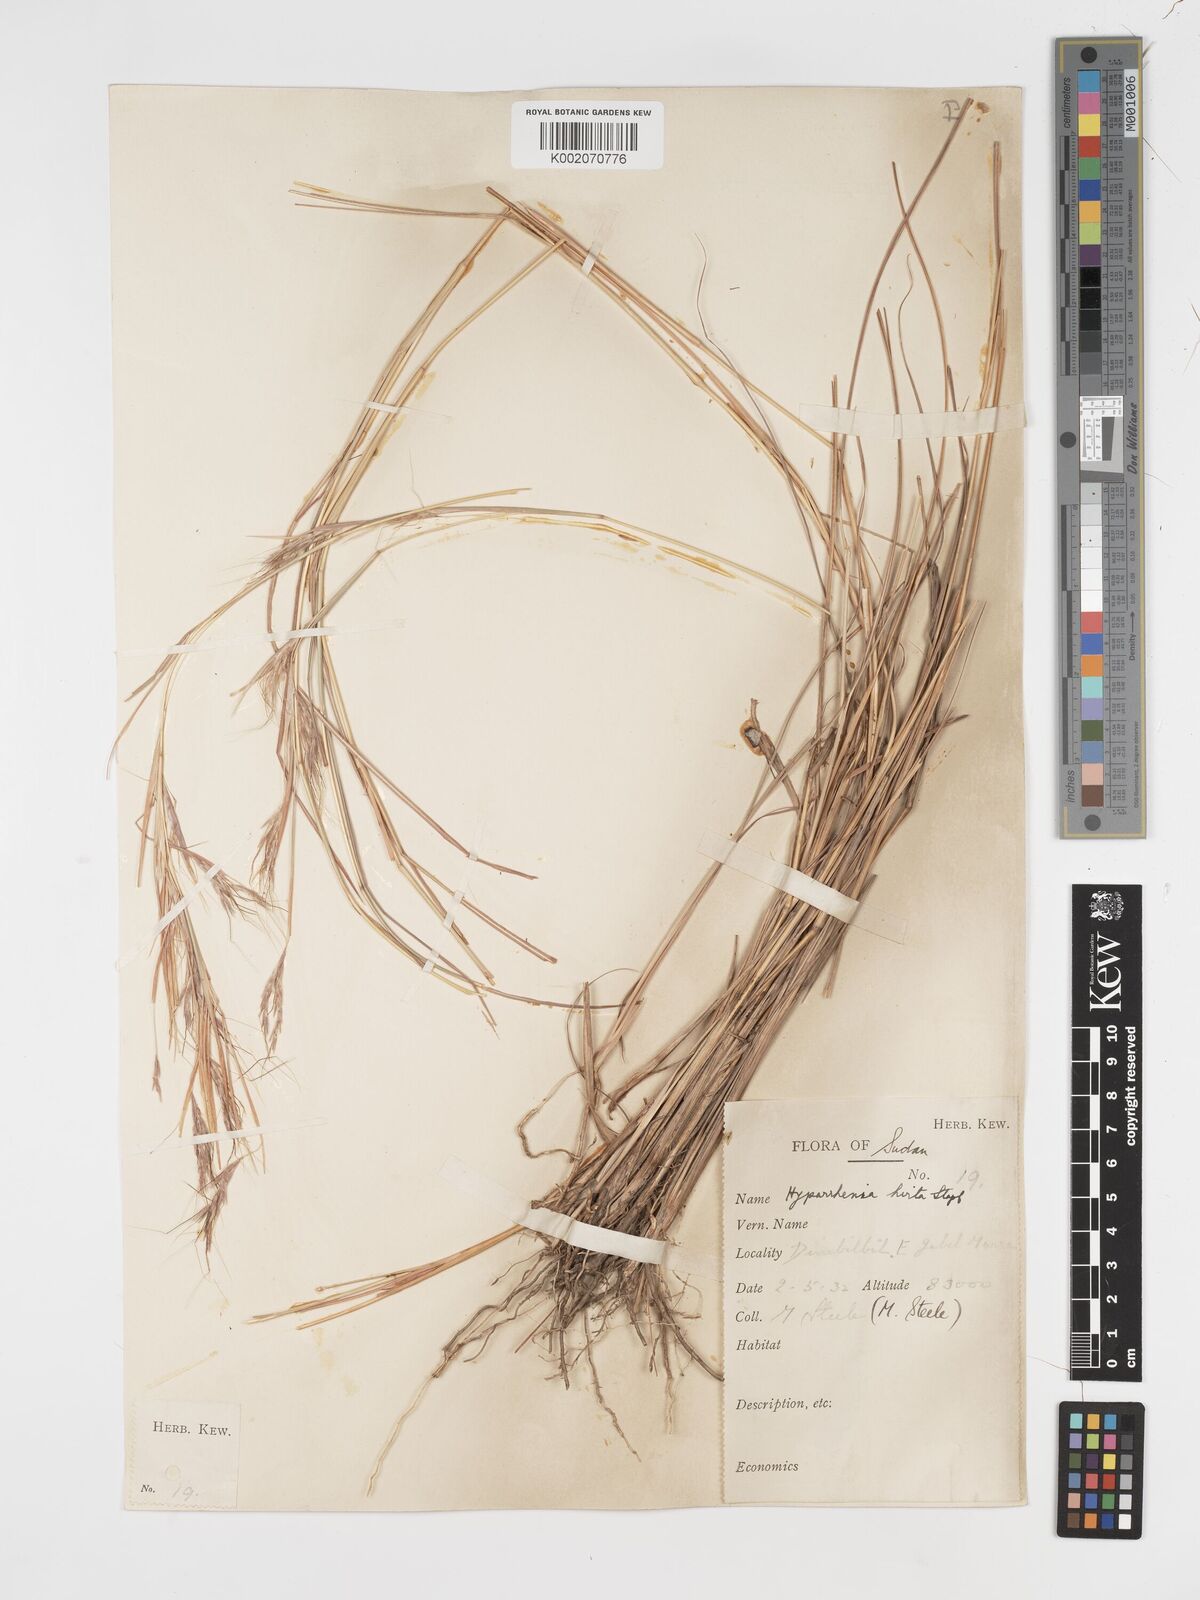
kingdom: Plantae
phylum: Tracheophyta
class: Liliopsida
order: Poales
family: Poaceae
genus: Hyparrhenia
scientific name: Hyparrhenia hirta
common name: Thatching grass
